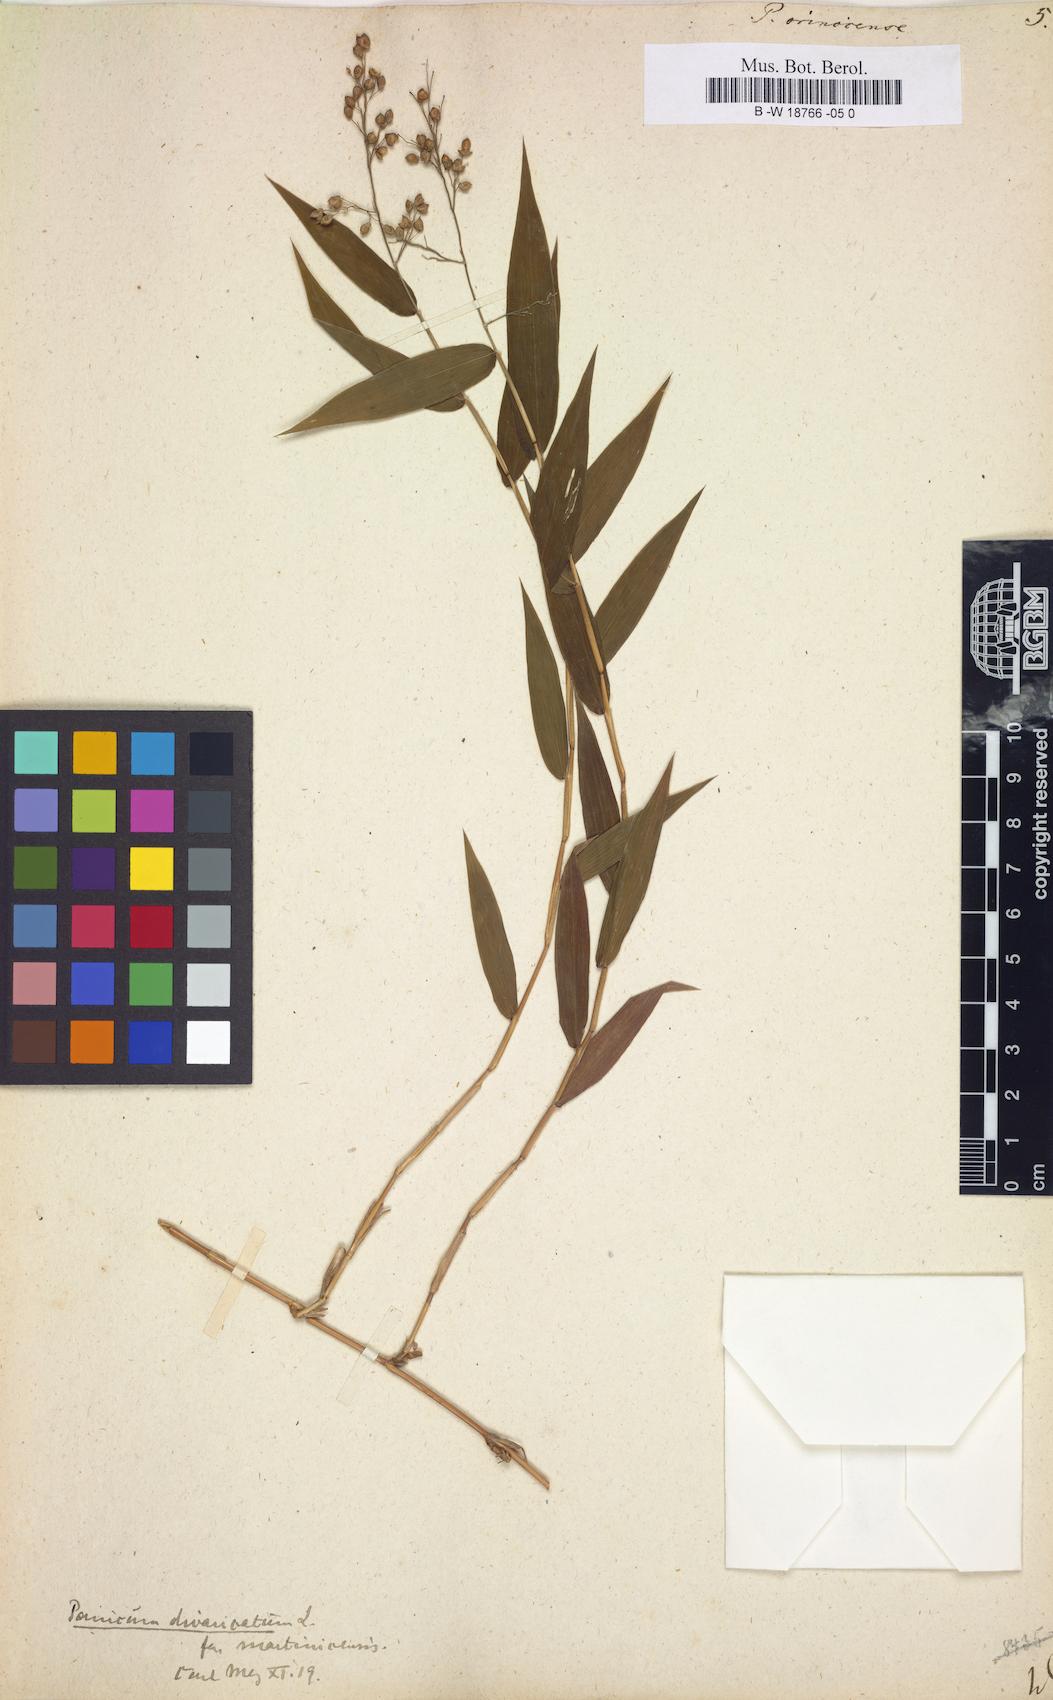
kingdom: Plantae
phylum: Tracheophyta
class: Liliopsida
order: Poales
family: Poaceae
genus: Lasiacis
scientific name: Lasiacis maculata
